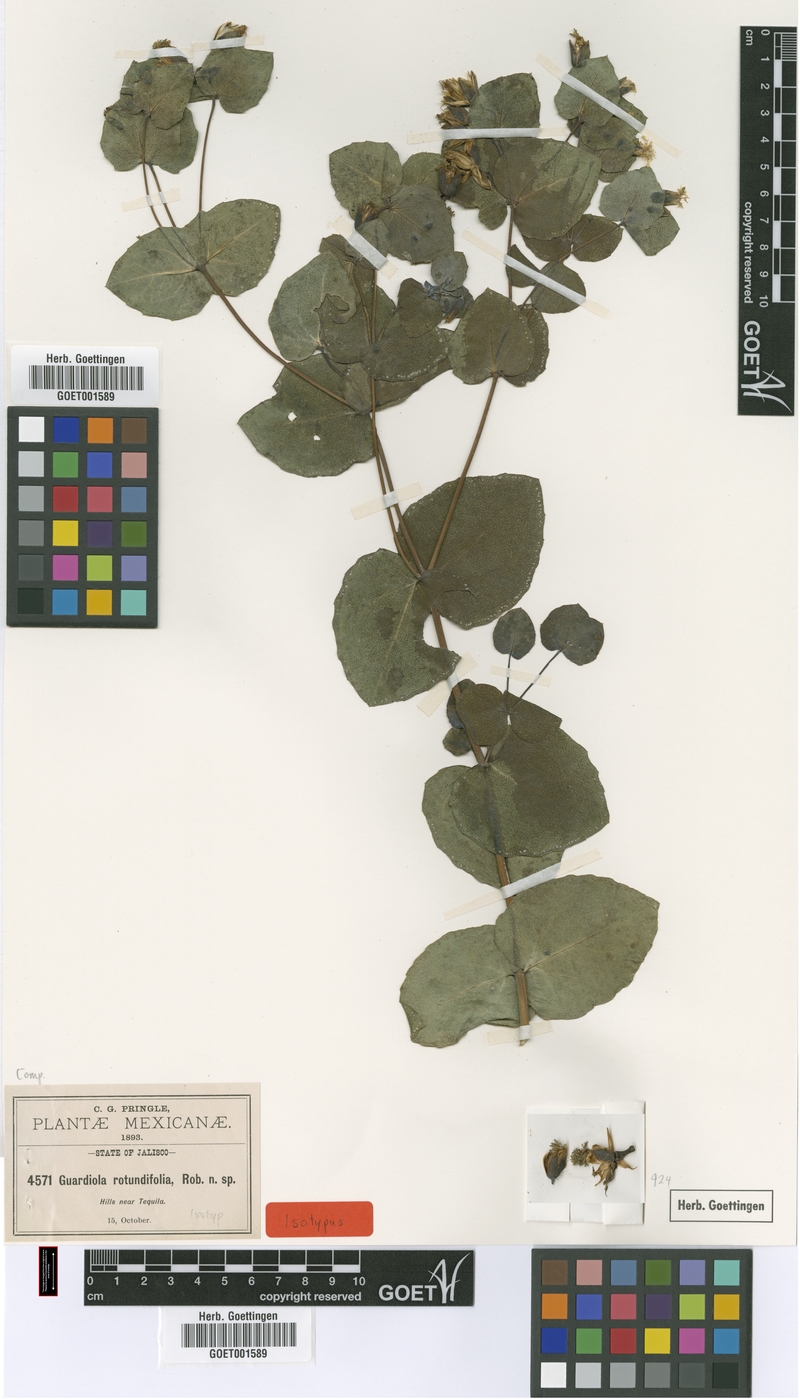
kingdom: Plantae
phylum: Tracheophyta
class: Magnoliopsida
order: Asterales
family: Asteraceae
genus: Guardiola
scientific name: Guardiola rotundifolia
